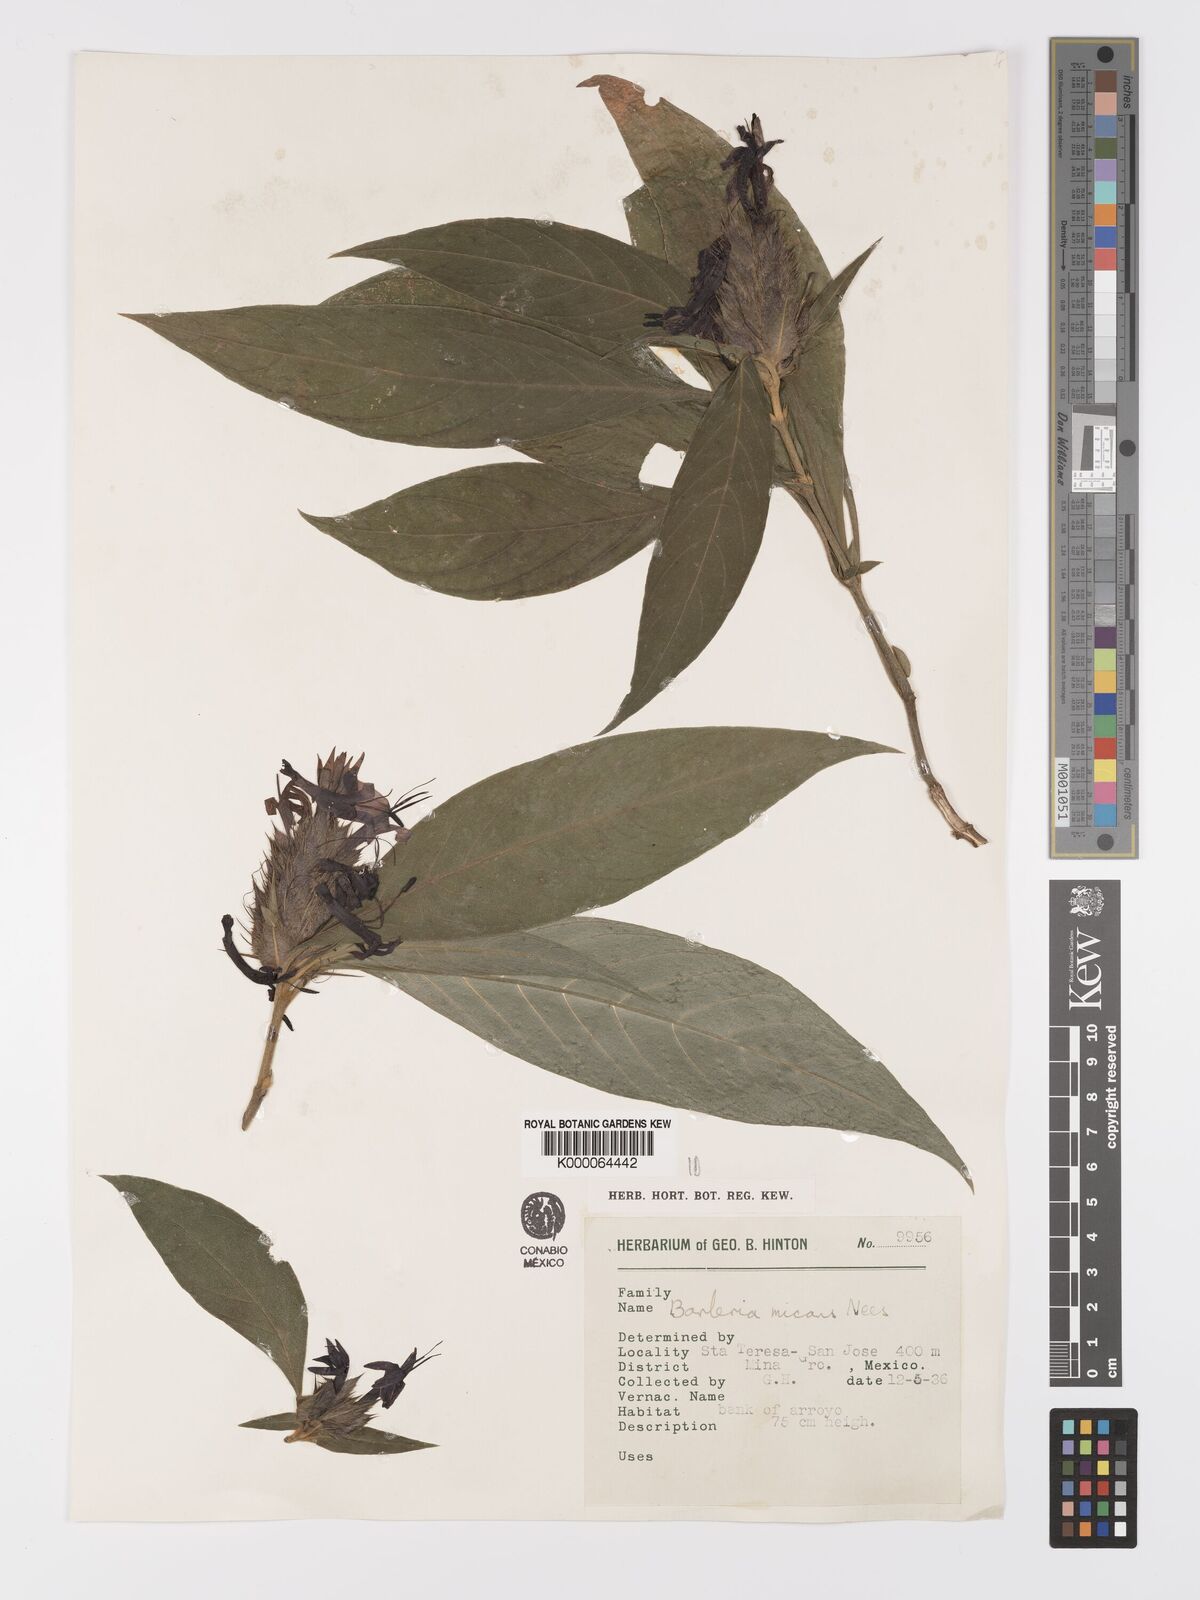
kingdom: Plantae
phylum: Tracheophyta
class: Magnoliopsida
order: Lamiales
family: Acanthaceae
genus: Barleria
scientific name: Barleria oenotheroides
